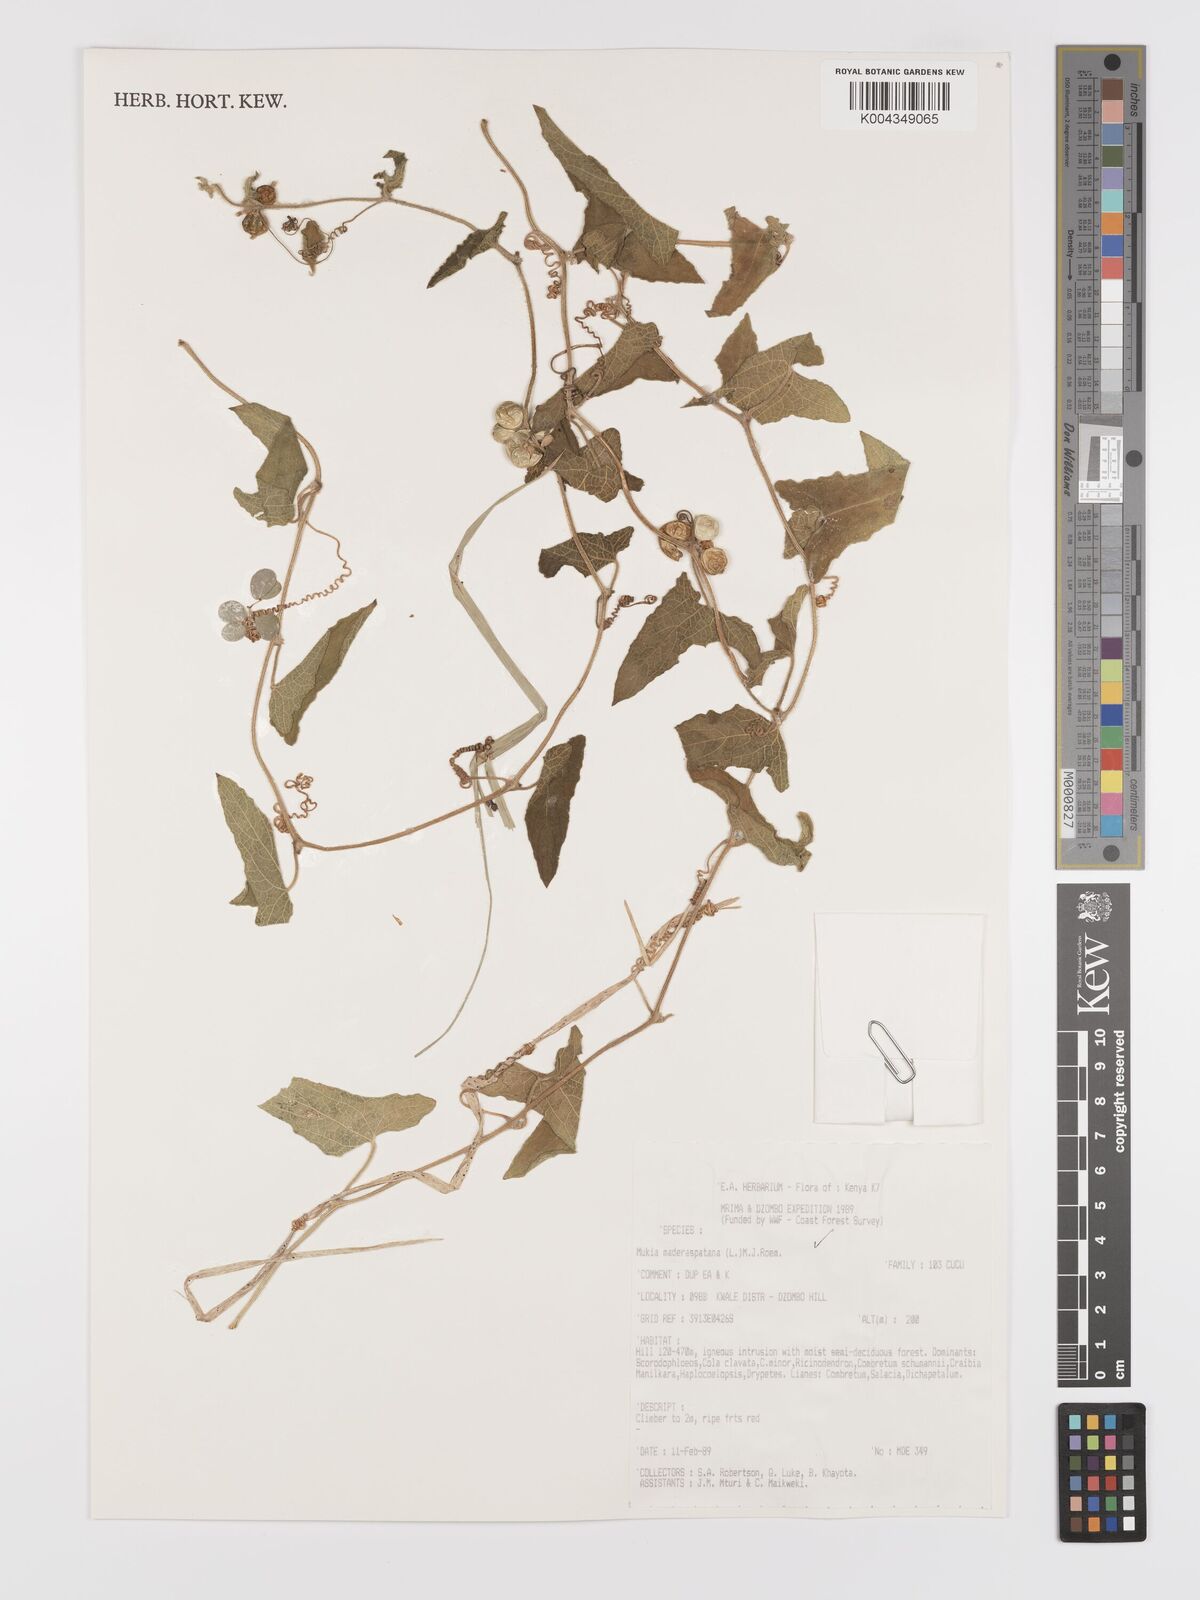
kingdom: Plantae
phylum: Tracheophyta
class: Magnoliopsida
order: Cucurbitales
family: Cucurbitaceae
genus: Cucumis
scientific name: Cucumis maderaspatanus
